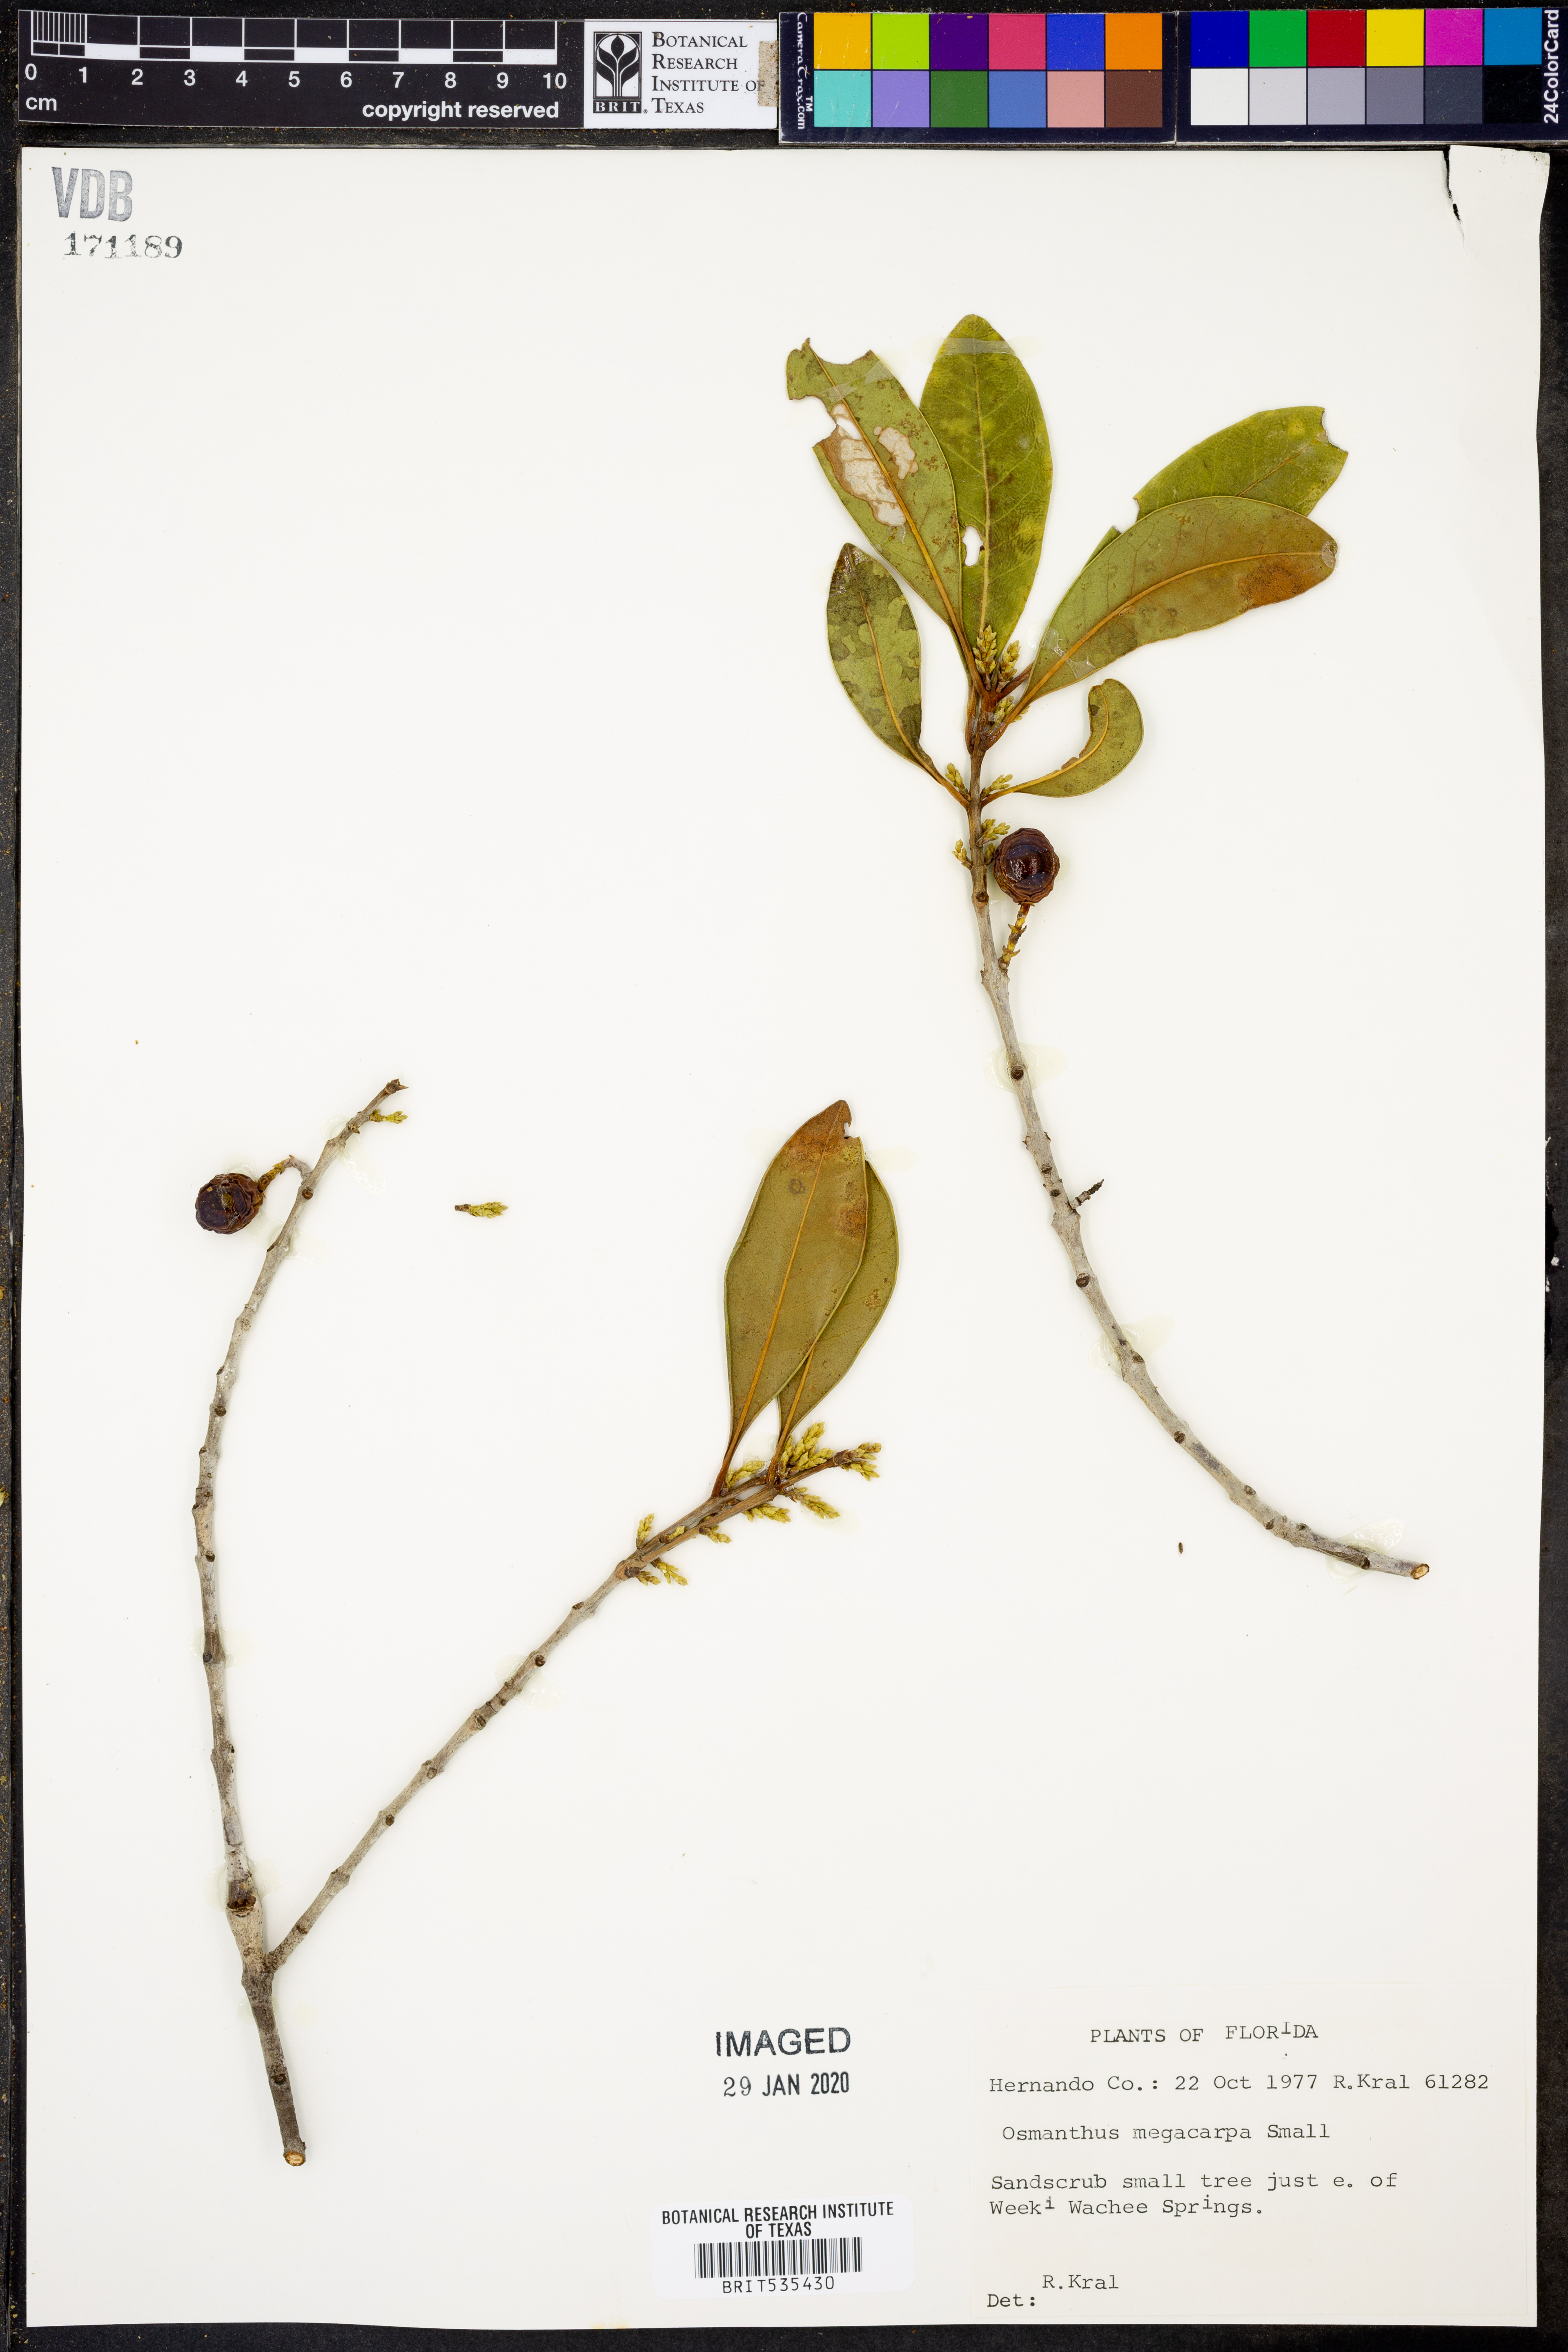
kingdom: Plantae
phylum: Tracheophyta
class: Magnoliopsida
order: Lamiales
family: Oleaceae
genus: Cartrema
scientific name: Cartrema floridana
